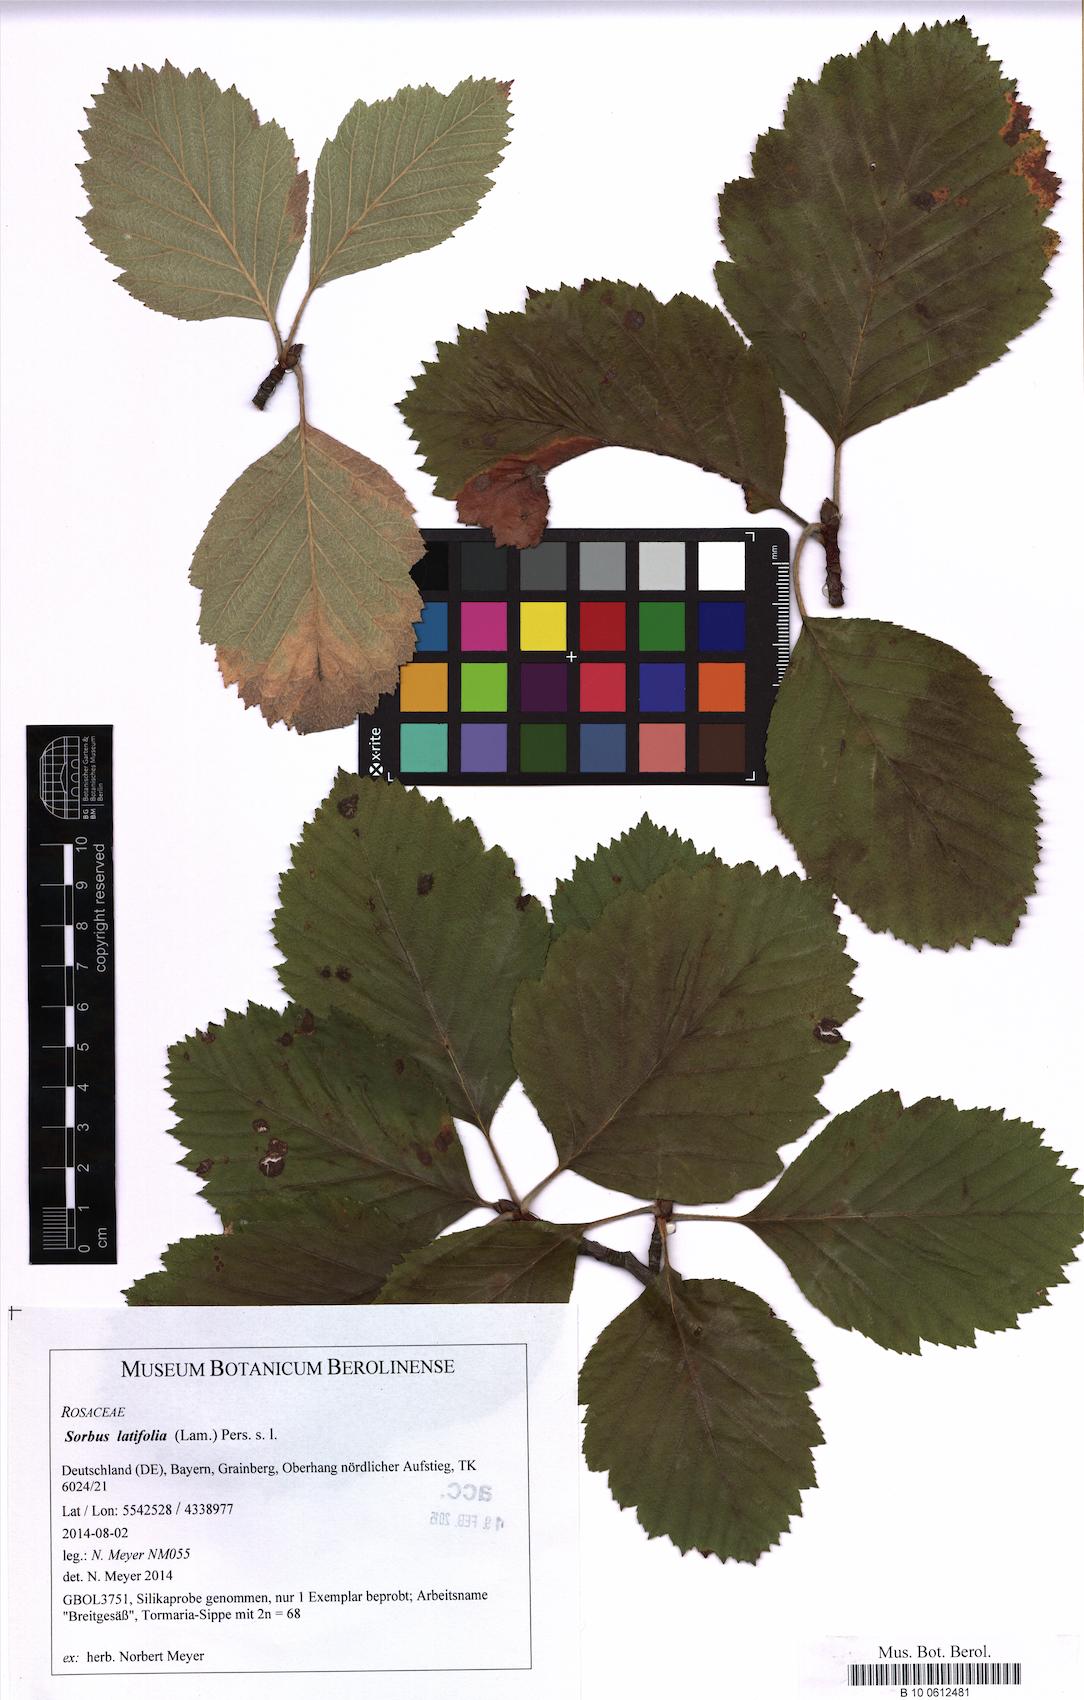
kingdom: Plantae
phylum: Tracheophyta
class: Magnoliopsida
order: Rosales
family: Rosaceae
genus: Karpatiosorbus
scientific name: Karpatiosorbus latifolia
